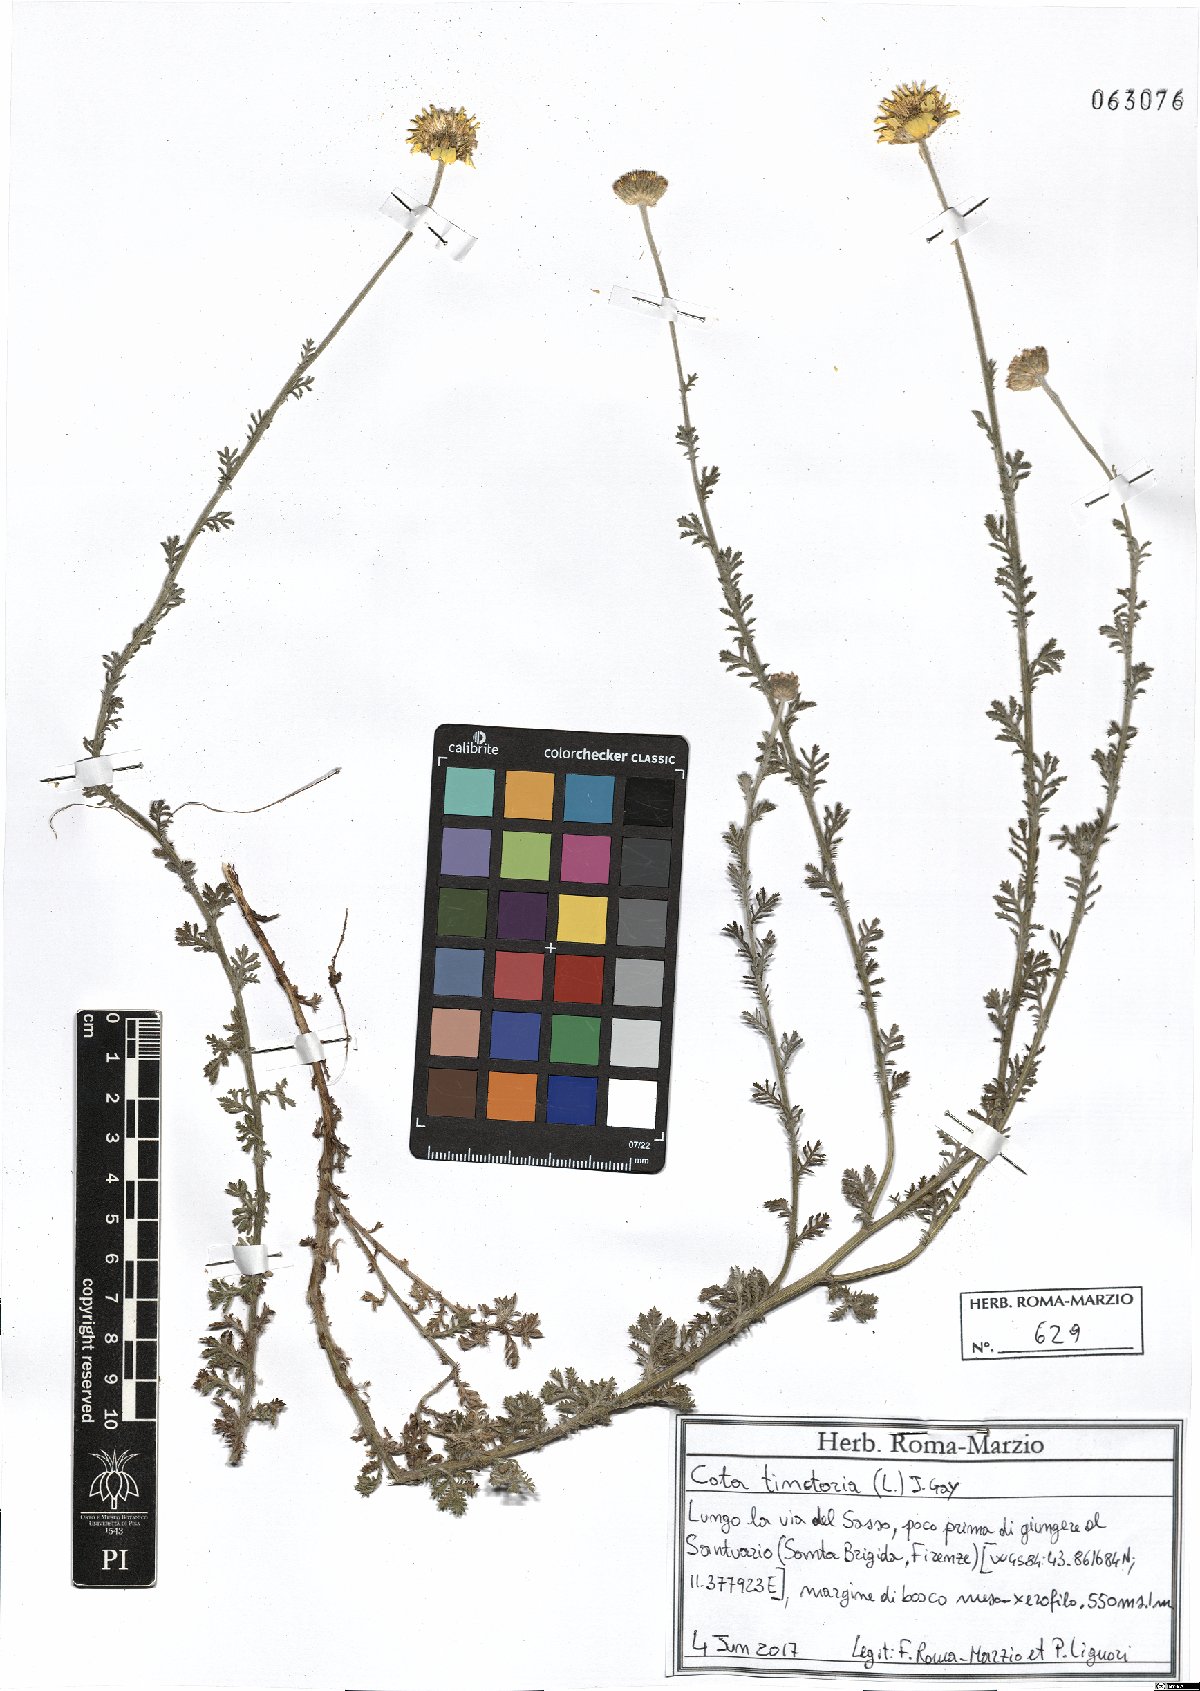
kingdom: Plantae
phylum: Tracheophyta
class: Magnoliopsida
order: Asterales
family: Asteraceae
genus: Cota
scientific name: Cota tinctoria
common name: Golden chamomile
